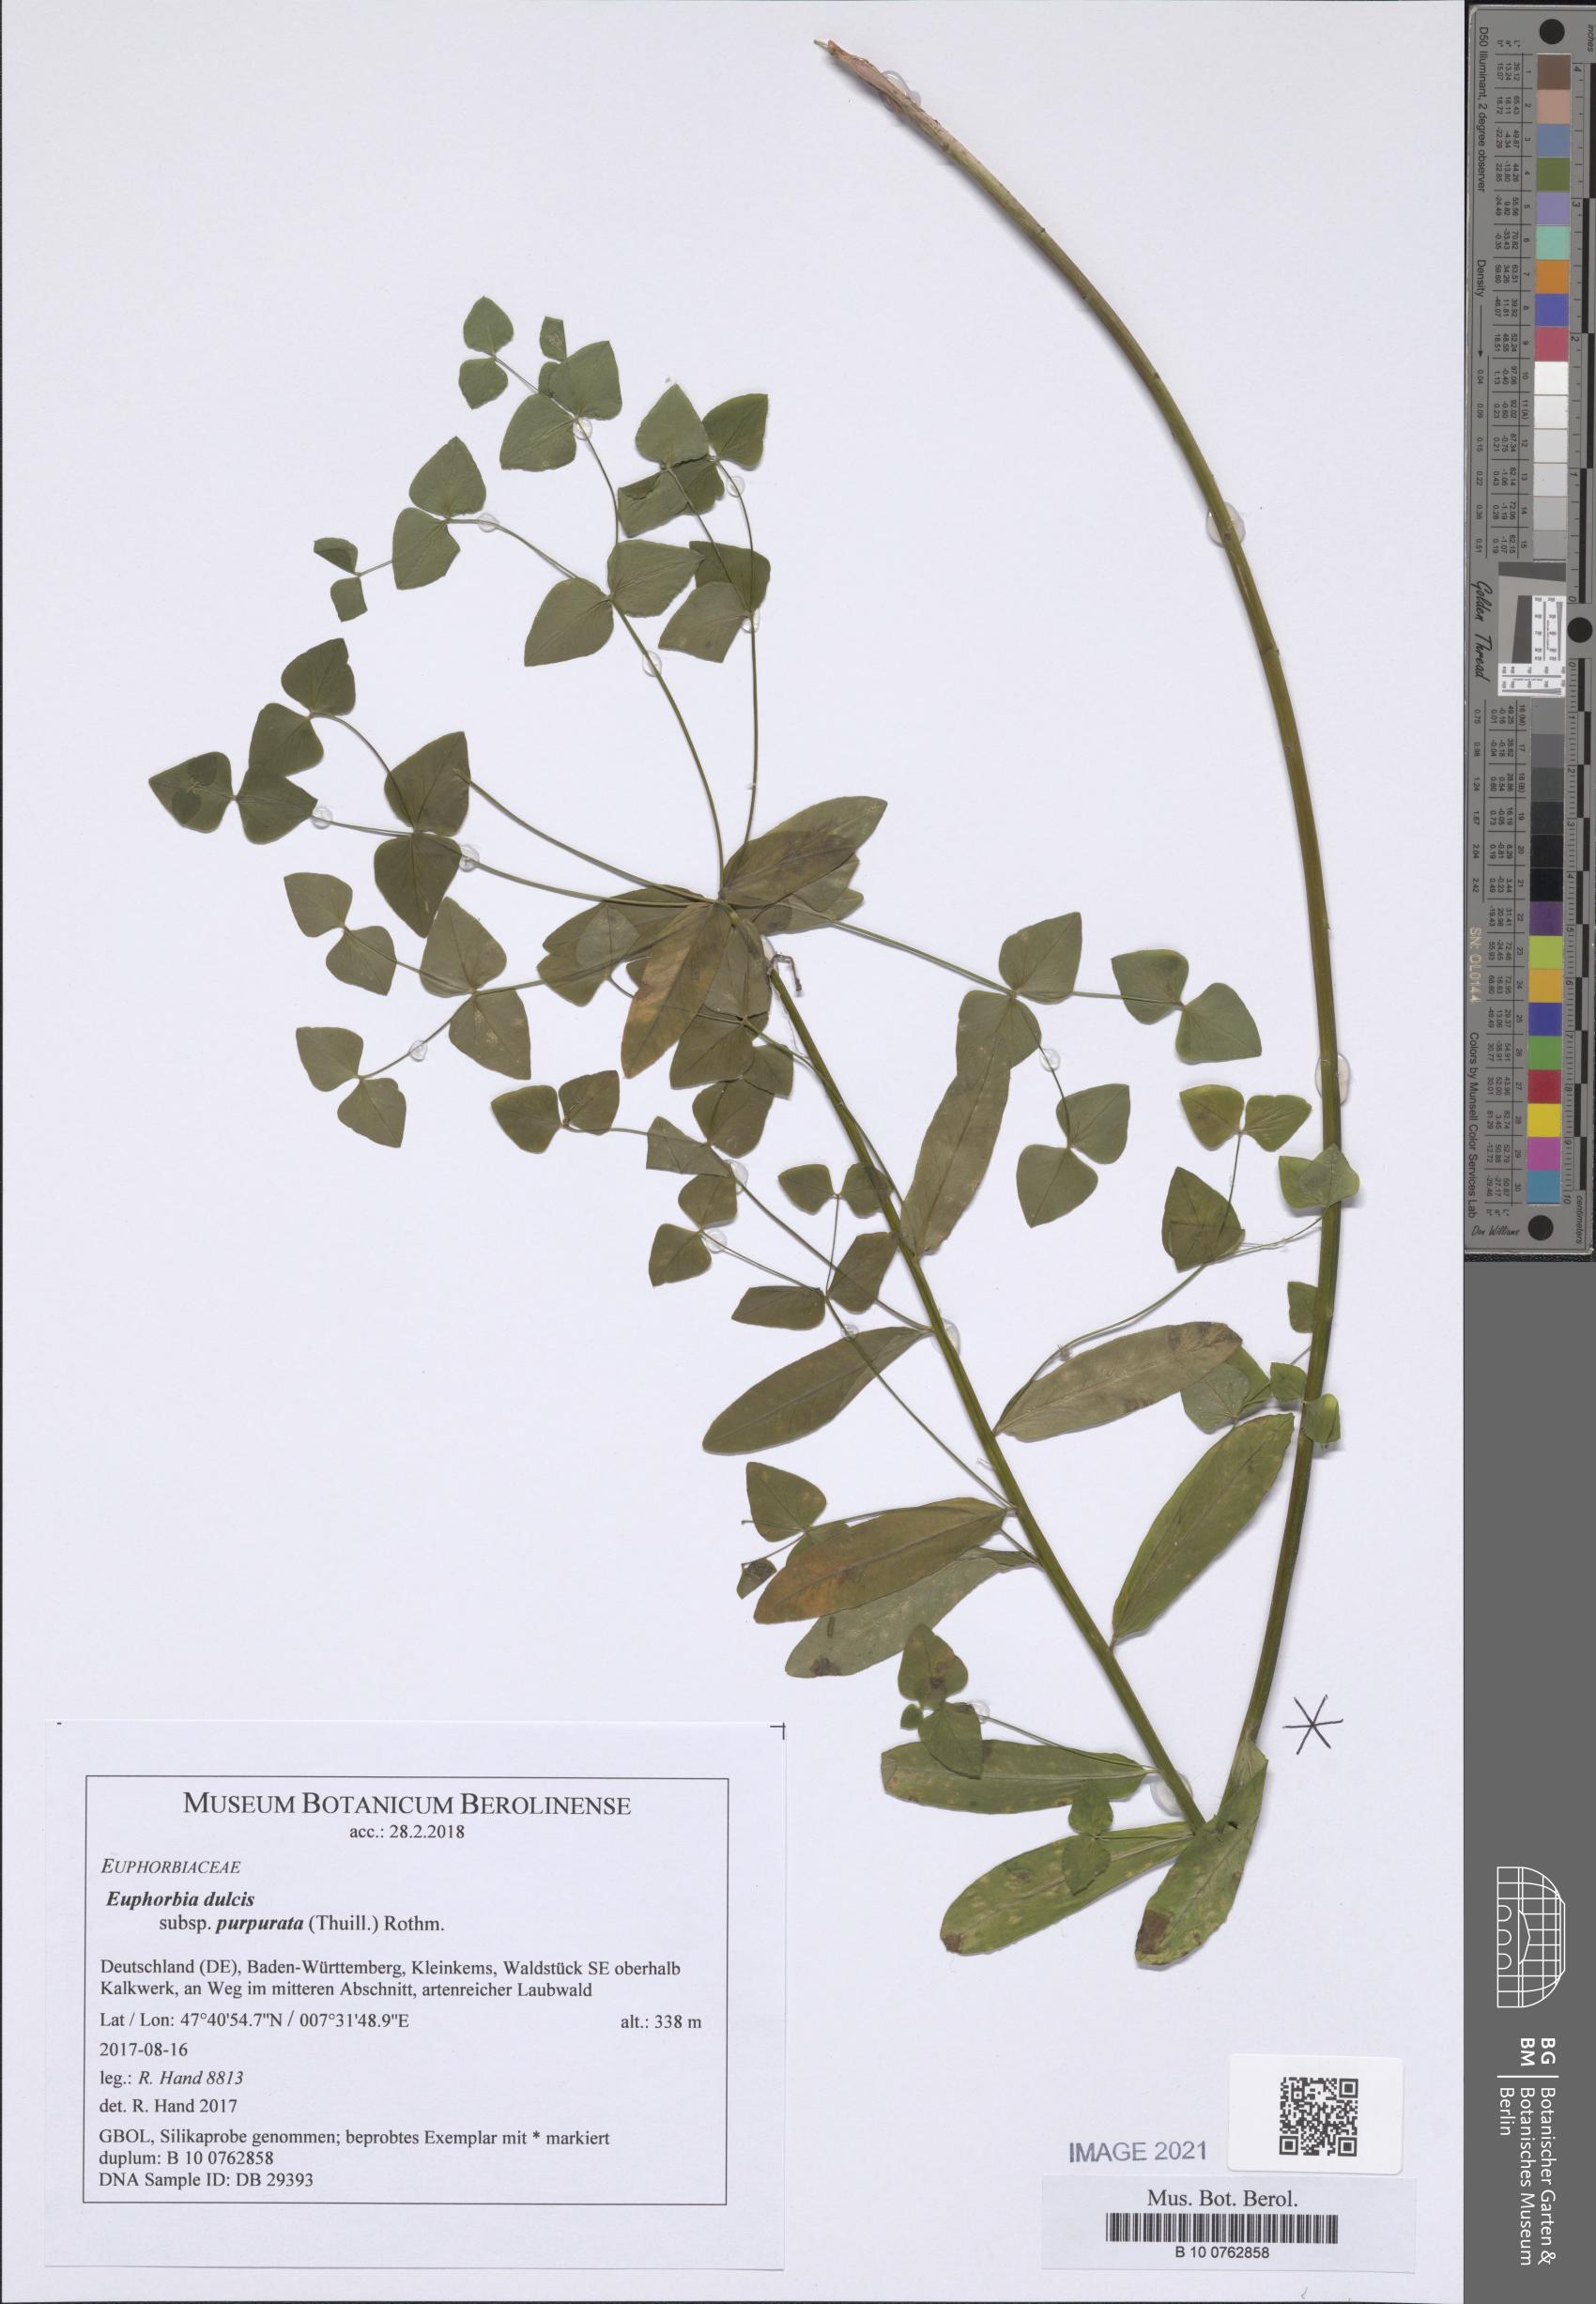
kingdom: Plantae
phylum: Tracheophyta
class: Magnoliopsida
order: Malpighiales
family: Euphorbiaceae
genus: Euphorbia
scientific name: Euphorbia dulcis
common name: Sweet spurge
